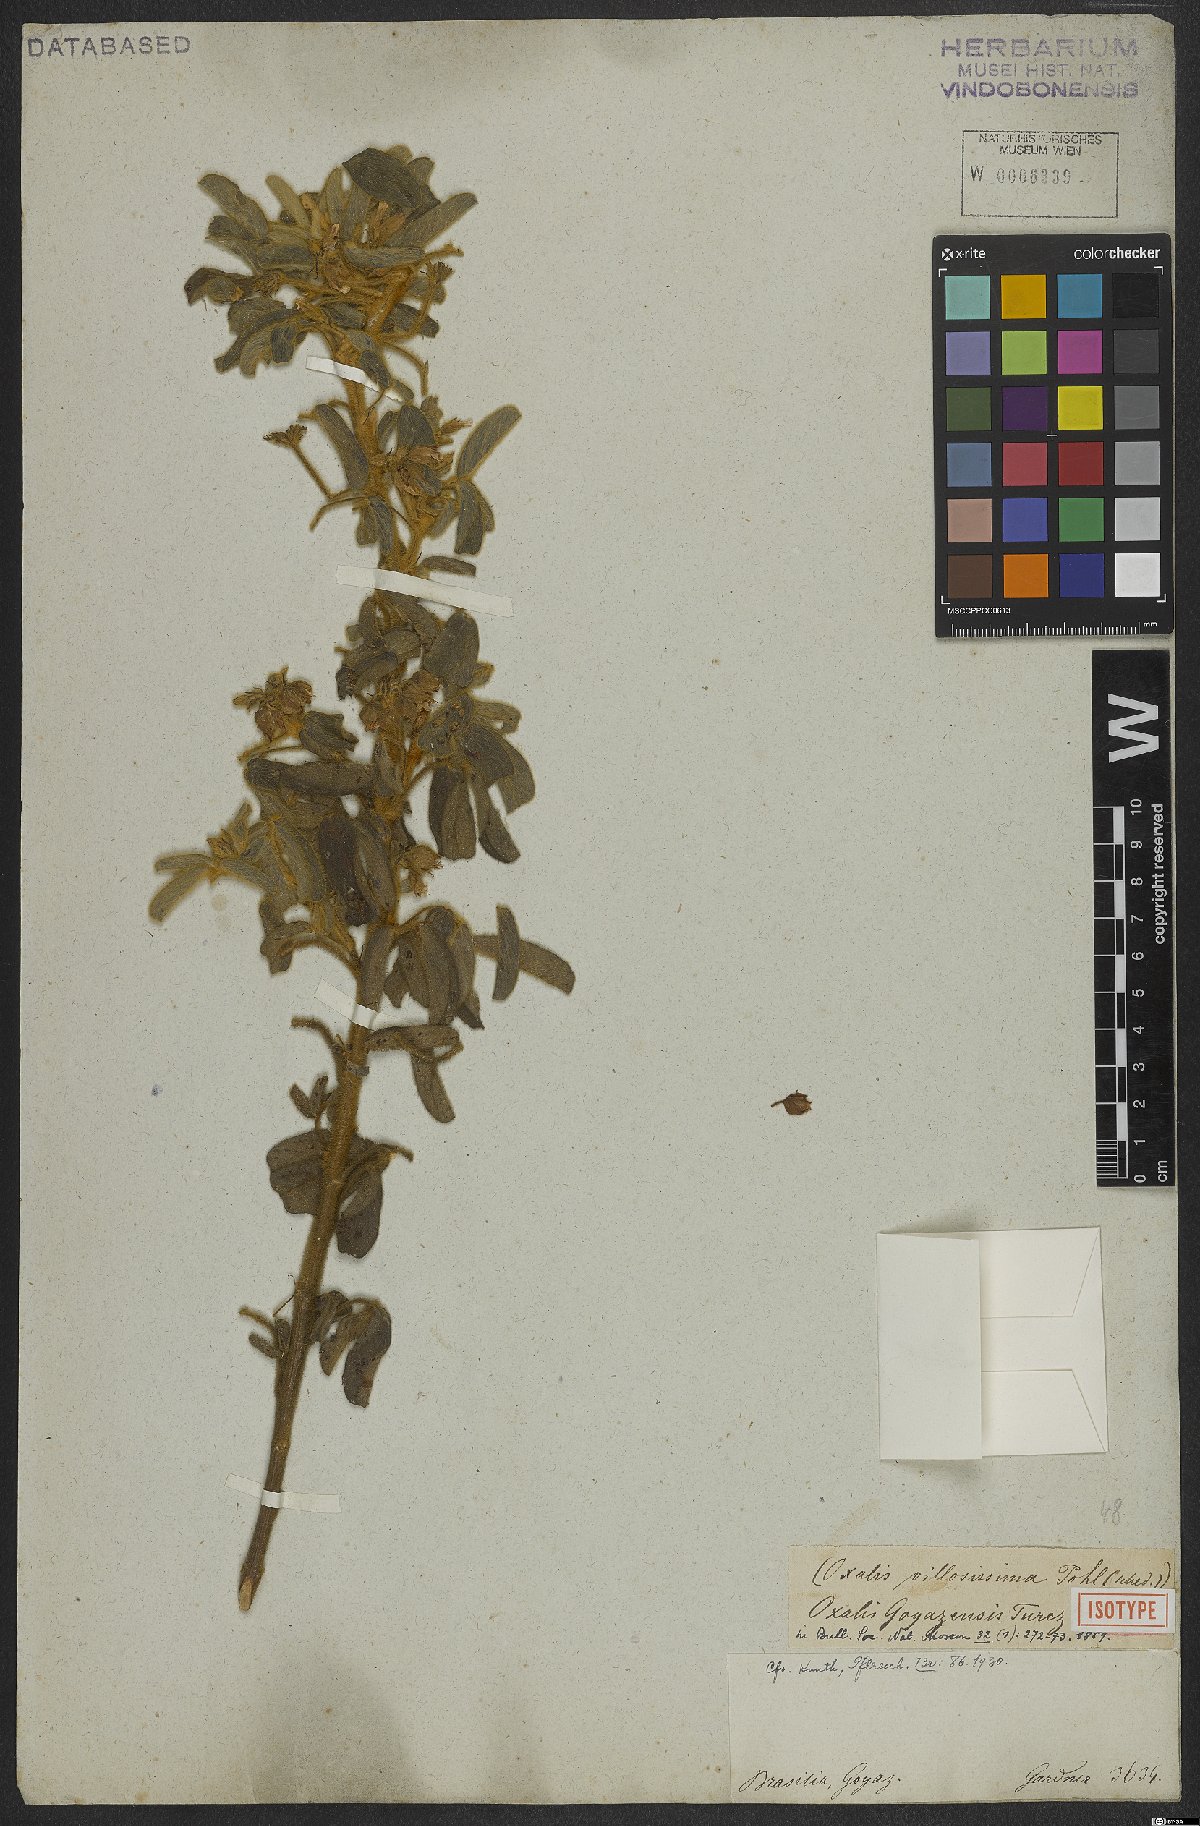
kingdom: Plantae
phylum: Tracheophyta
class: Magnoliopsida
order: Oxalidales
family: Oxalidaceae
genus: Oxalis
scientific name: Oxalis goyazensis
